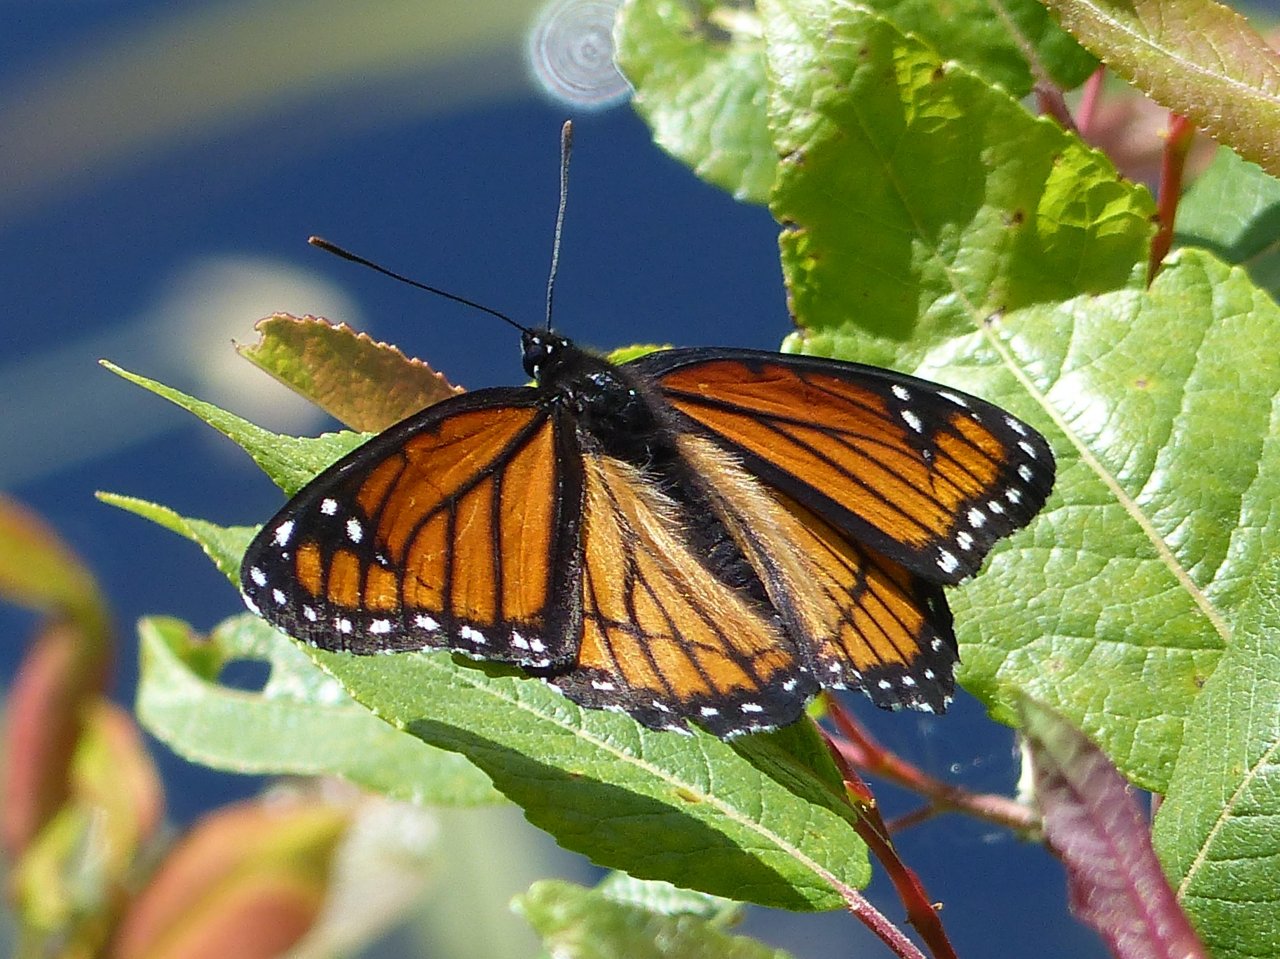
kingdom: Animalia
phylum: Arthropoda
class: Insecta
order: Lepidoptera
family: Nymphalidae
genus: Limenitis
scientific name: Limenitis archippus
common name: Viceroy
